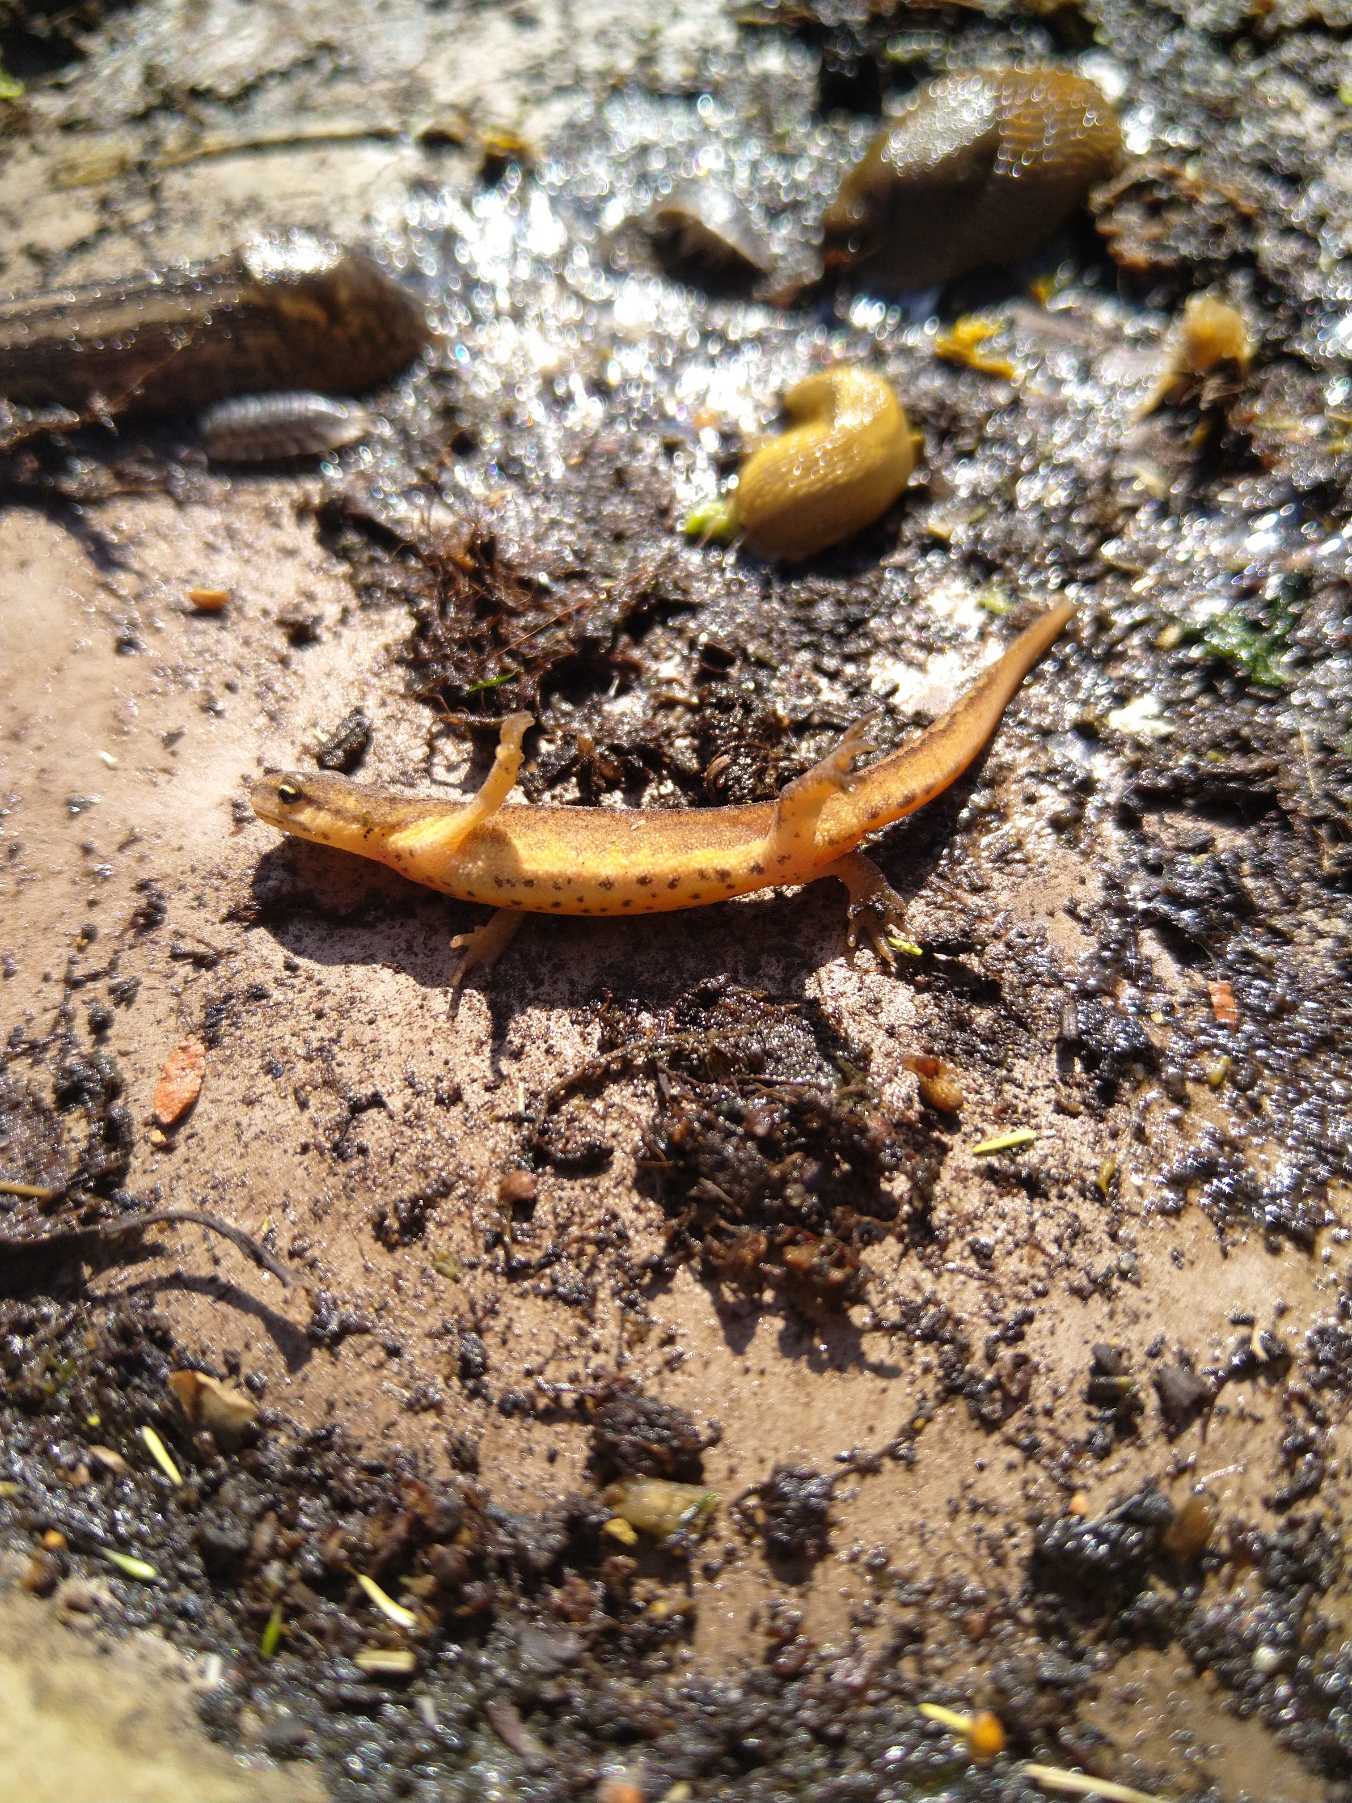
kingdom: Animalia
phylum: Chordata
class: Amphibia
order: Caudata
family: Salamandridae
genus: Lissotriton
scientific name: Lissotriton vulgaris
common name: Lille vandsalamander
